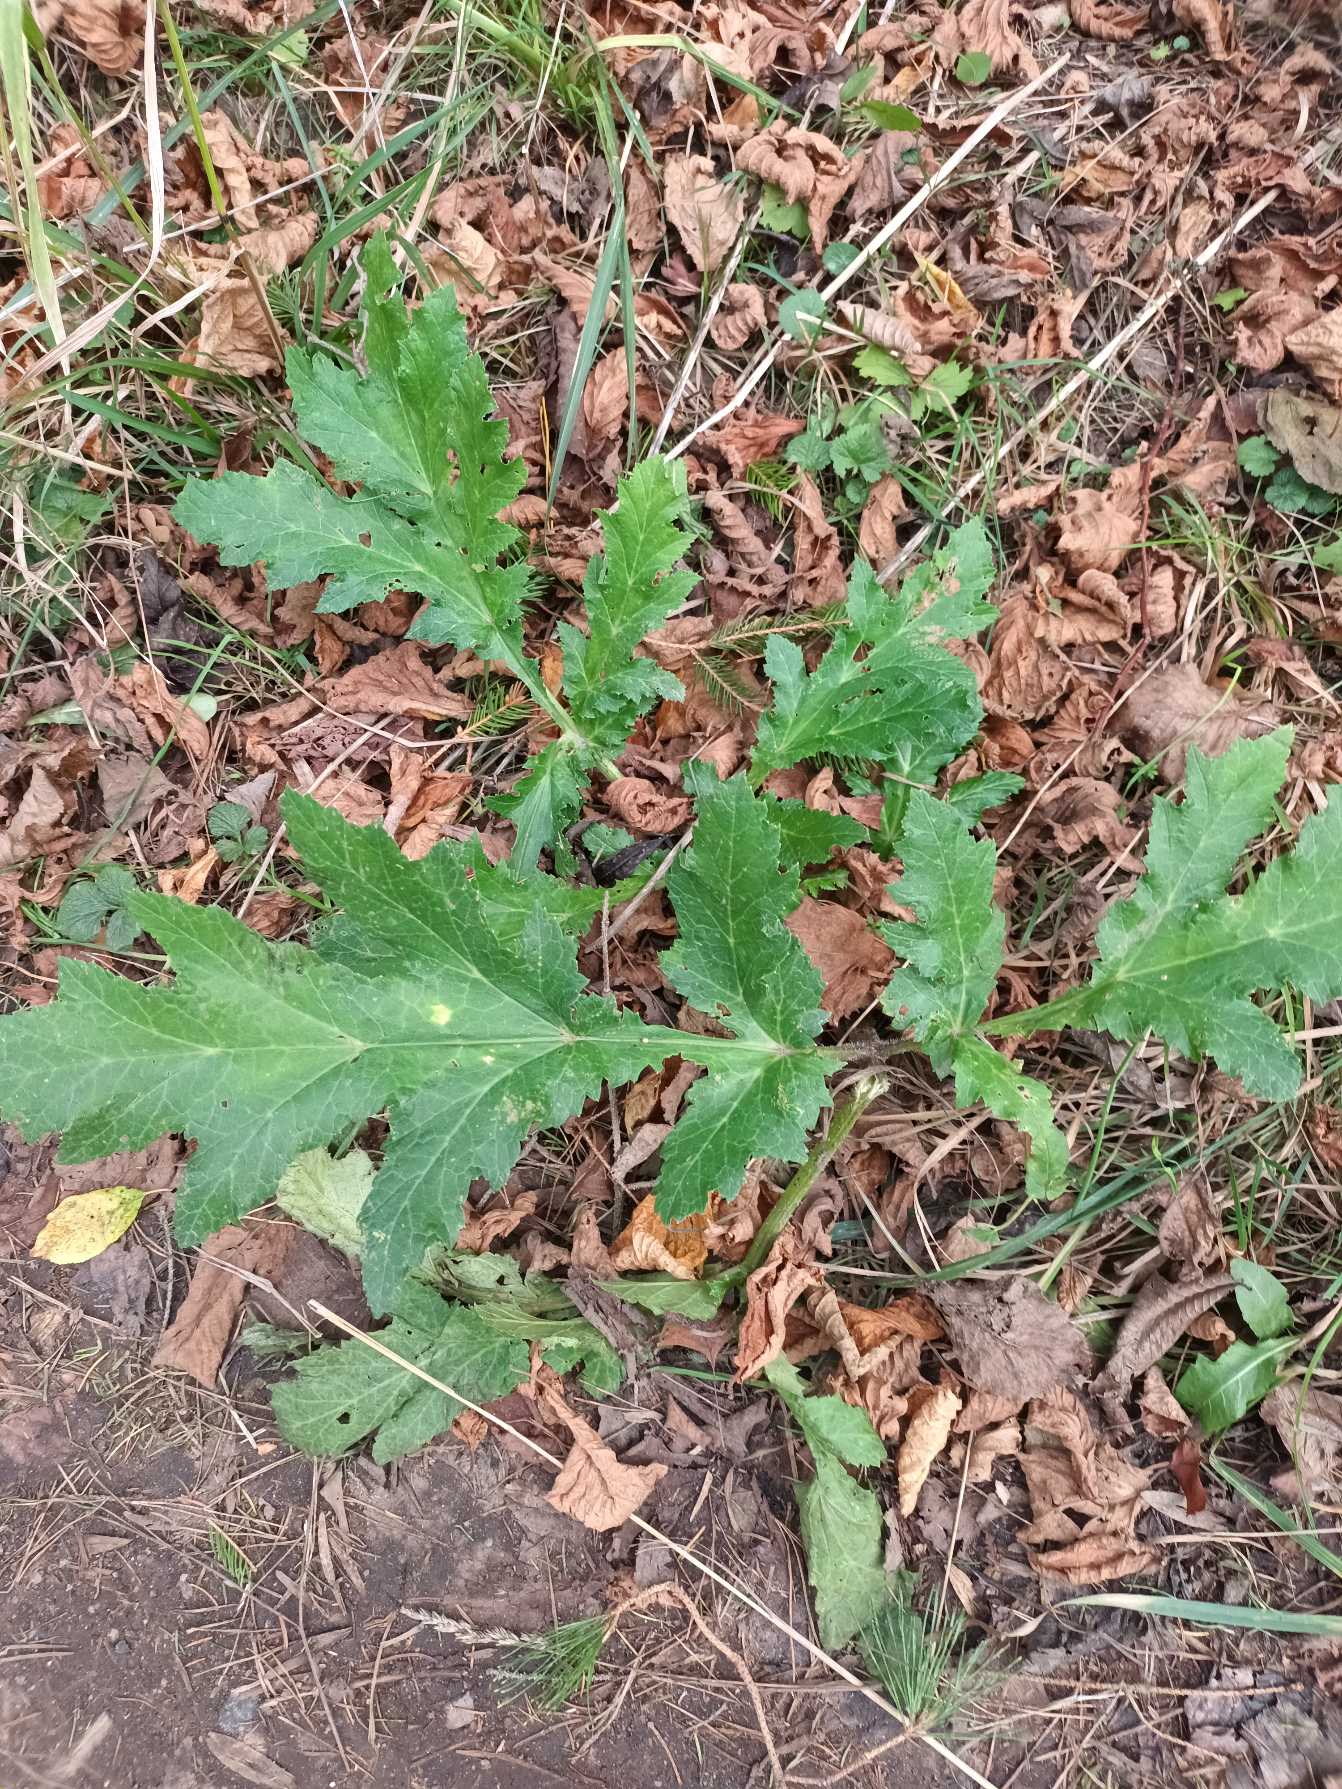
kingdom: Plantae
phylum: Tracheophyta
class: Magnoliopsida
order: Apiales
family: Apiaceae
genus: Heracleum
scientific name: Heracleum mantegazzianum
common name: Kæmpe-bjørneklo
